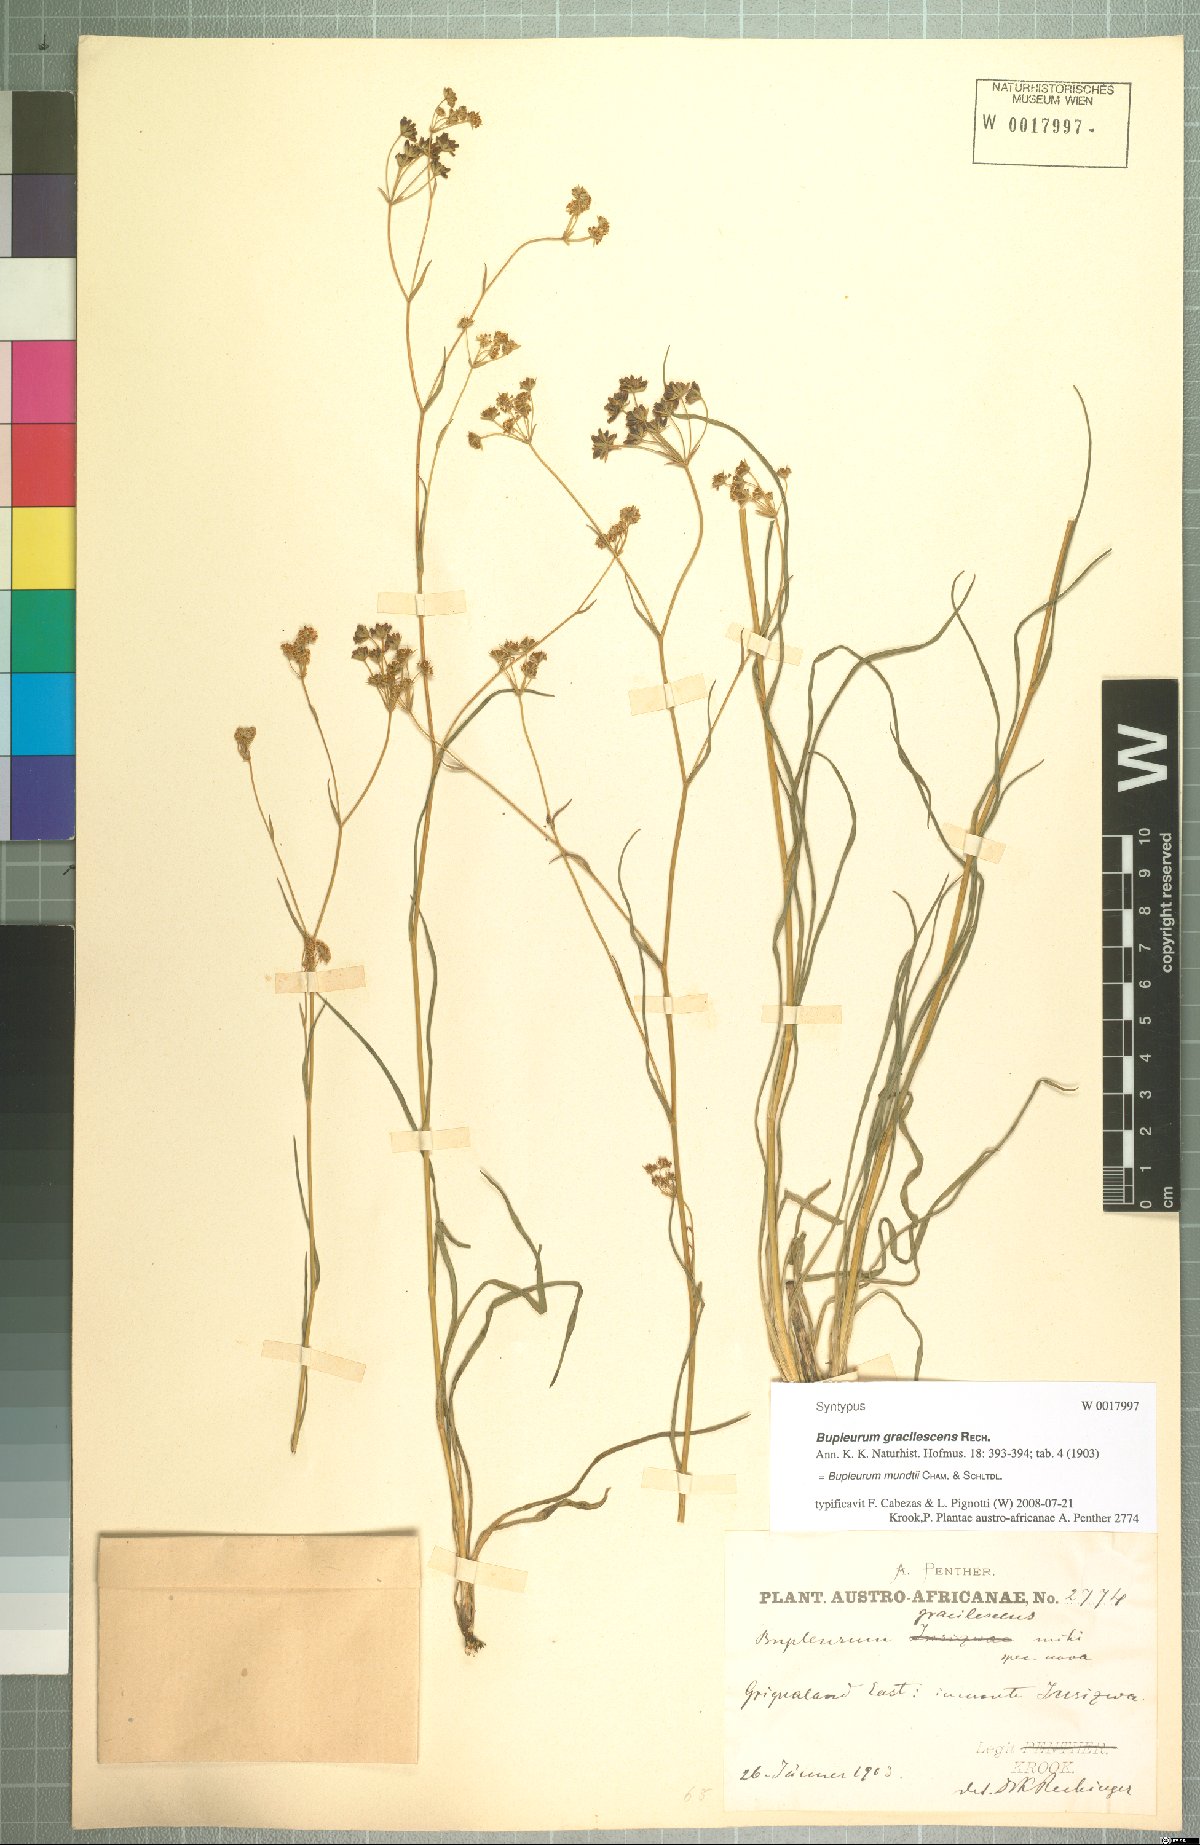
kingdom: Plantae
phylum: Tracheophyta
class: Magnoliopsida
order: Apiales
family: Apiaceae
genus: Bupleurum
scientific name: Bupleurum mundtii
